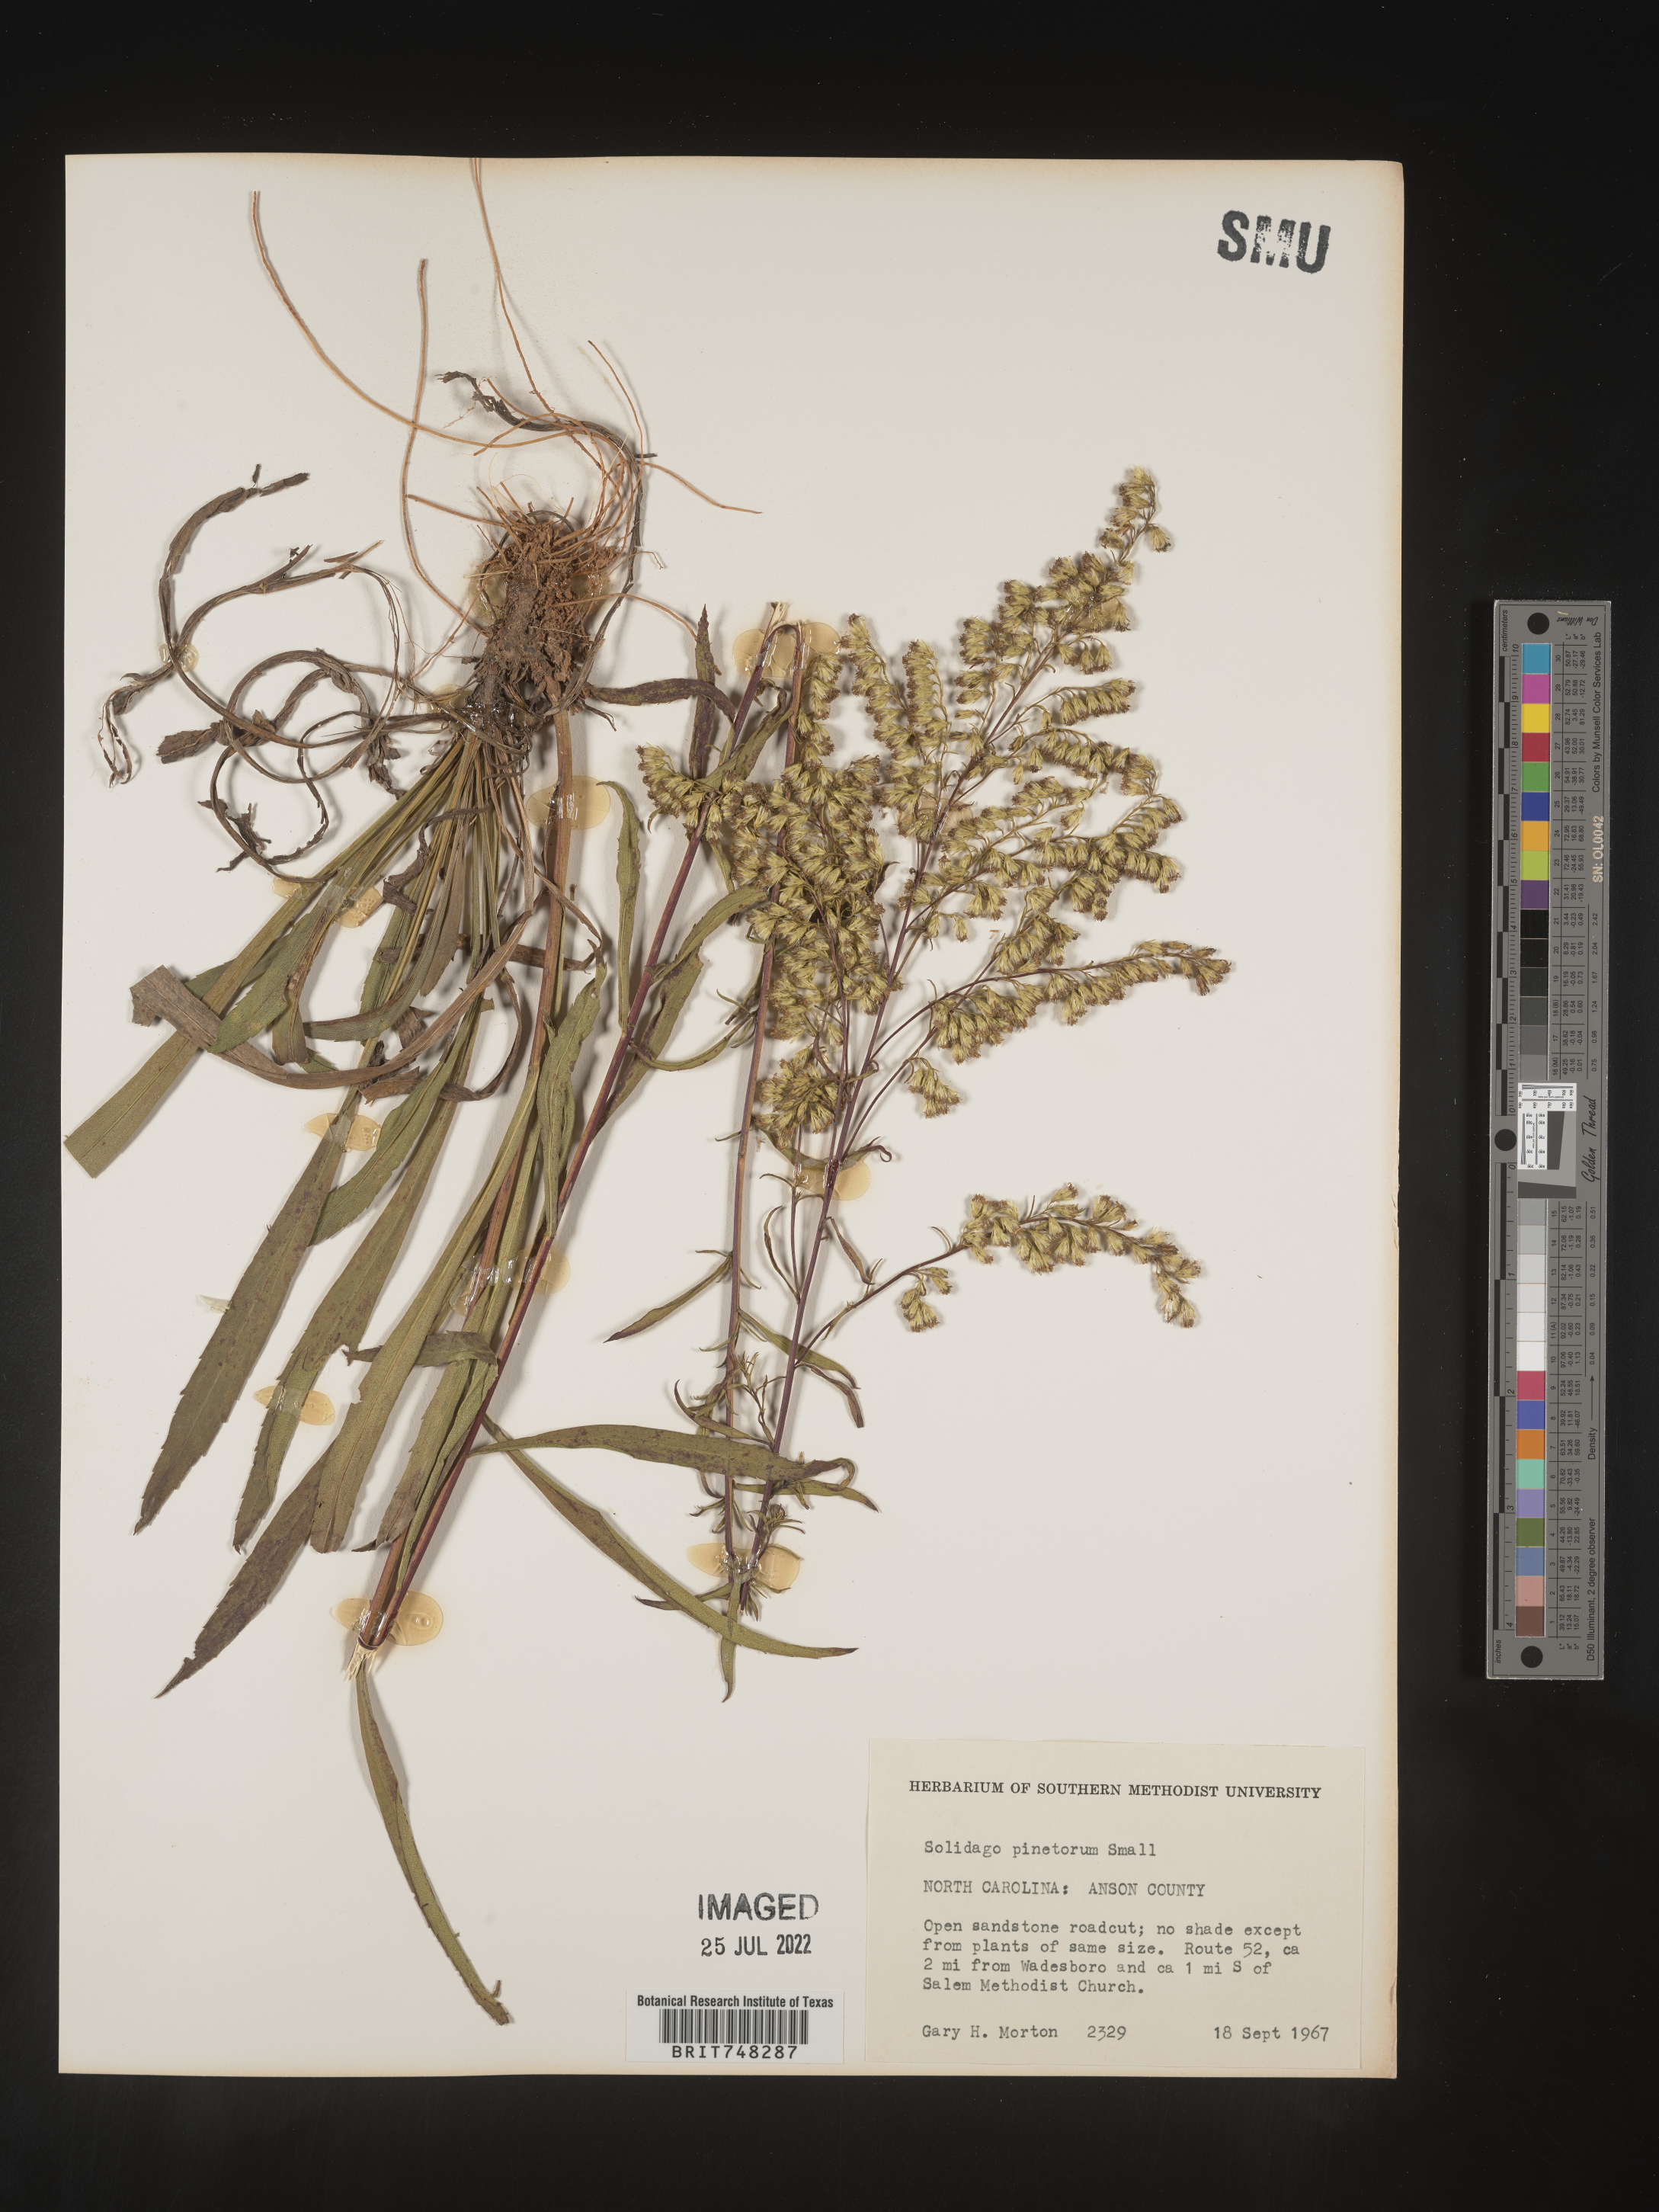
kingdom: Plantae
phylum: Tracheophyta
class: Magnoliopsida
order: Asterales
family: Asteraceae
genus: Solidago
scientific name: Solidago pinetorum
